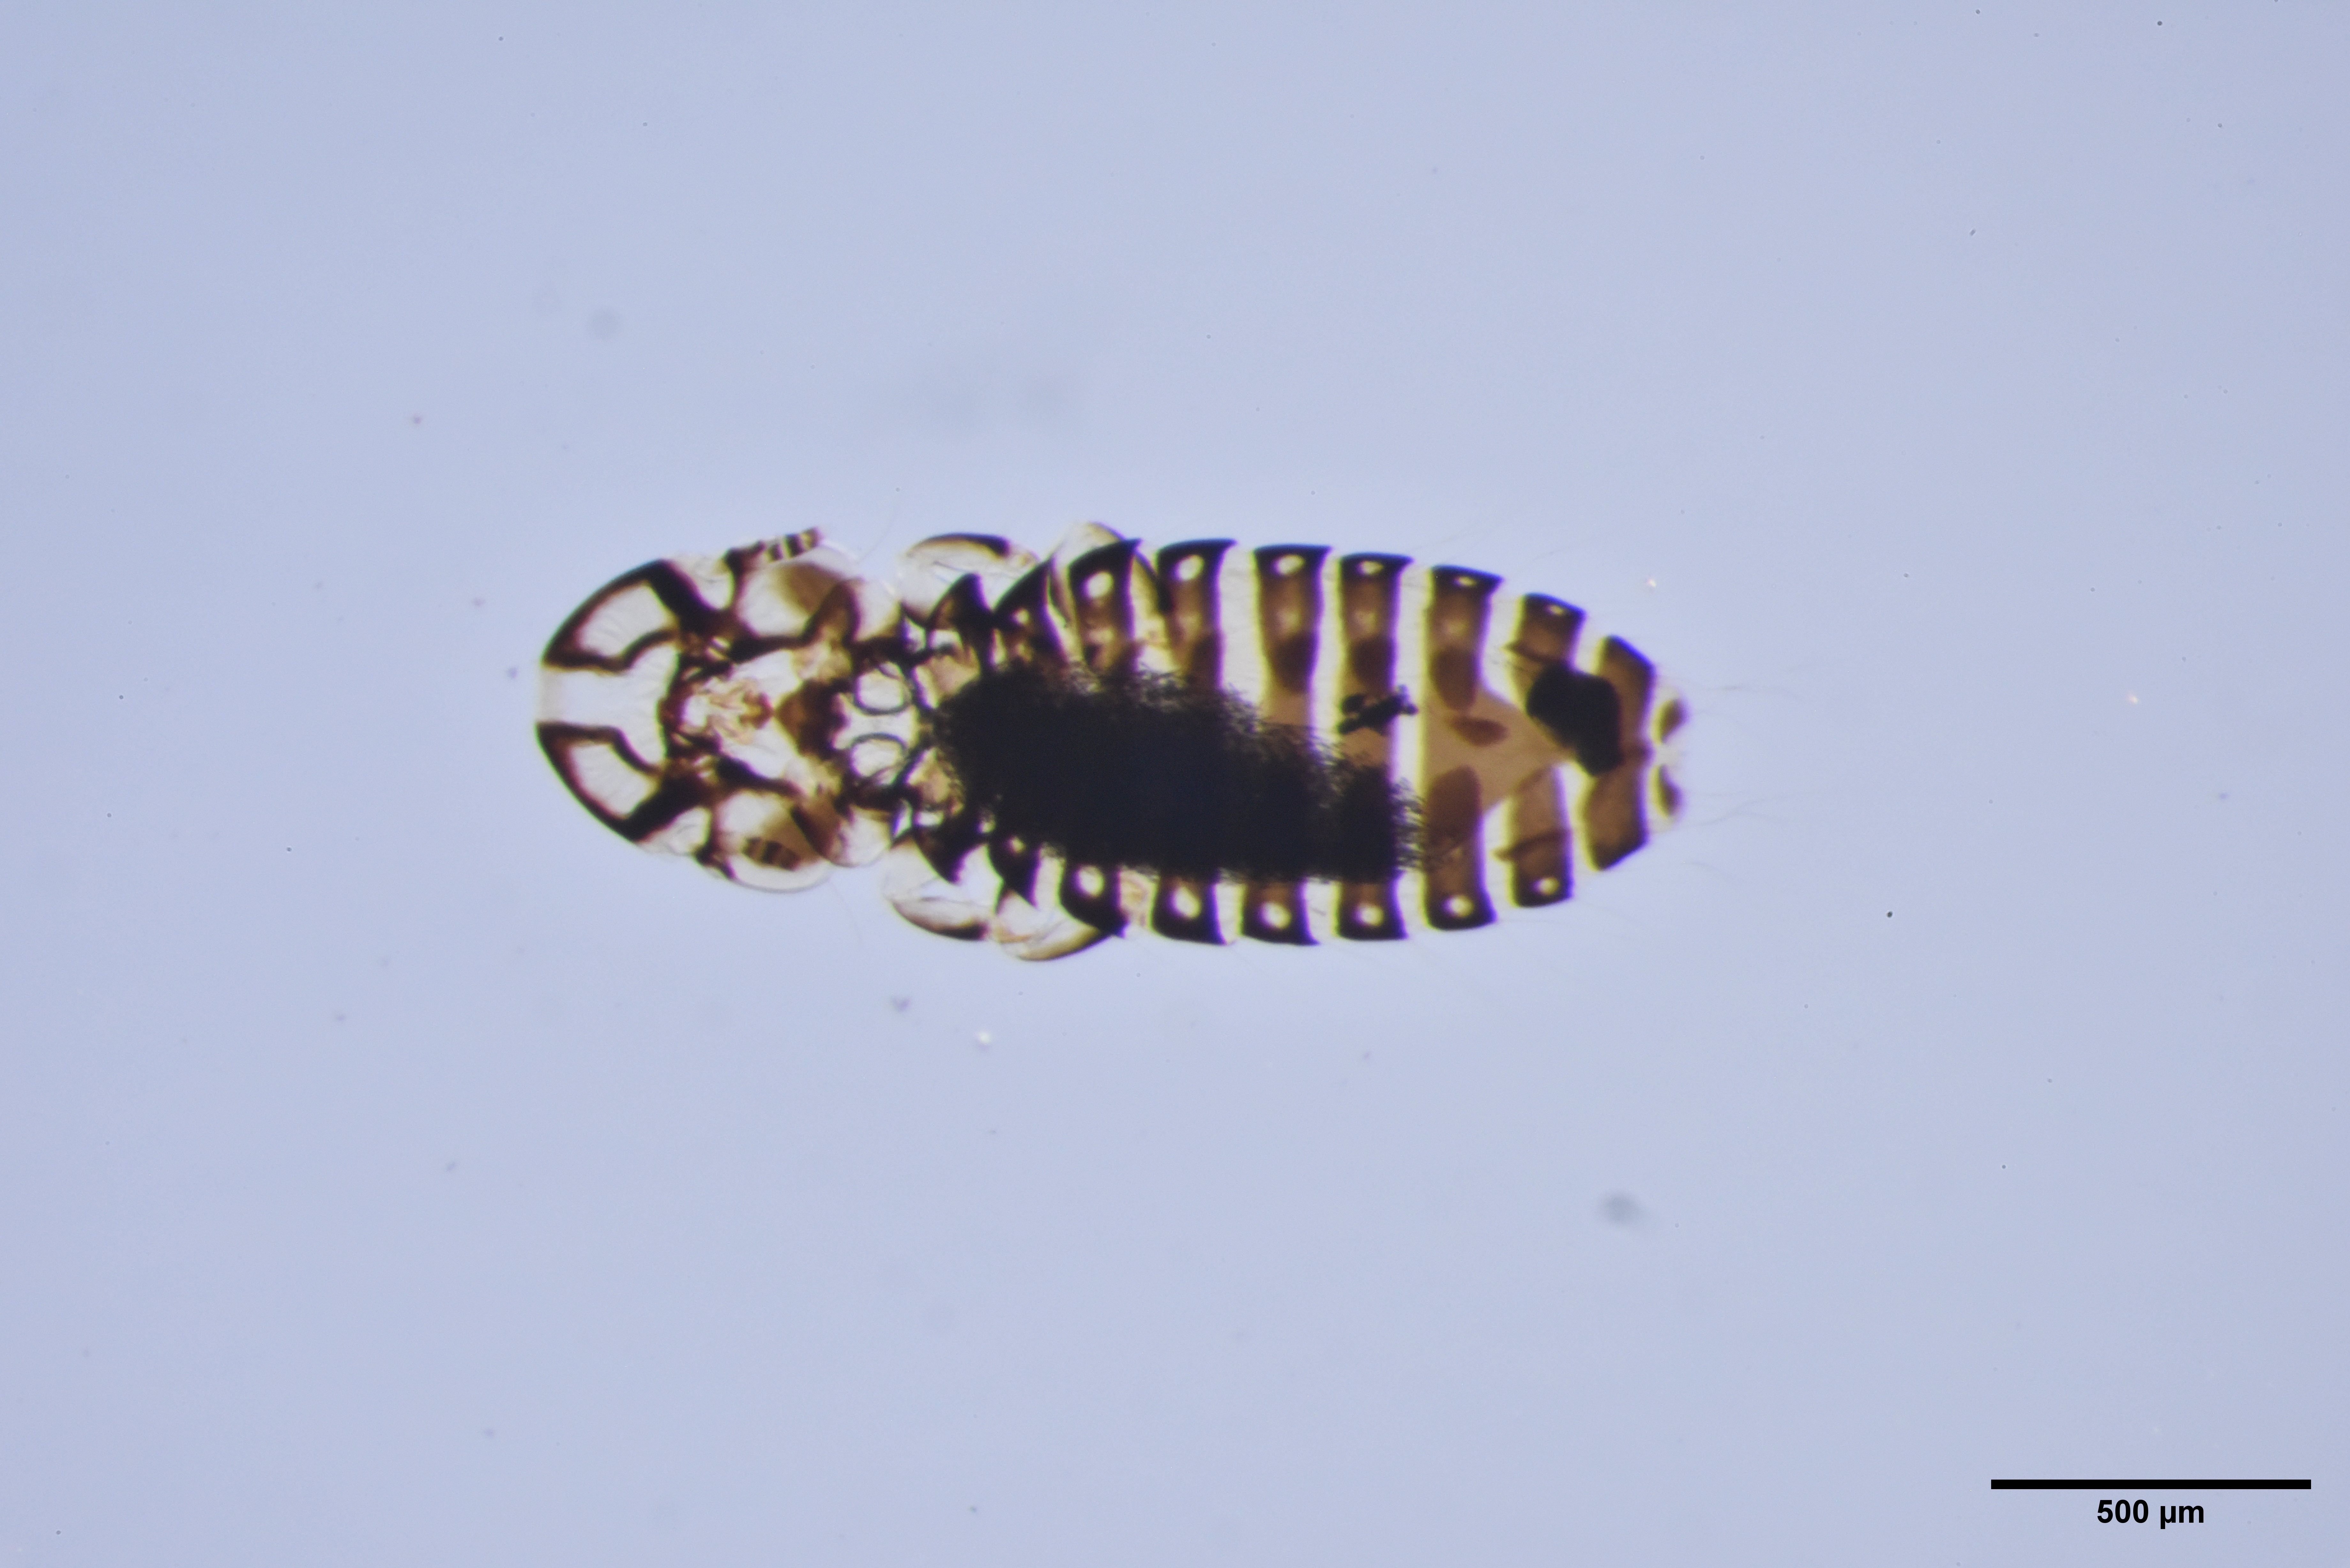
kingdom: Animalia
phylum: Arthropoda
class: Insecta
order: Psocodea
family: Philopteridae
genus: Brueelia
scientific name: Brueelia argula
